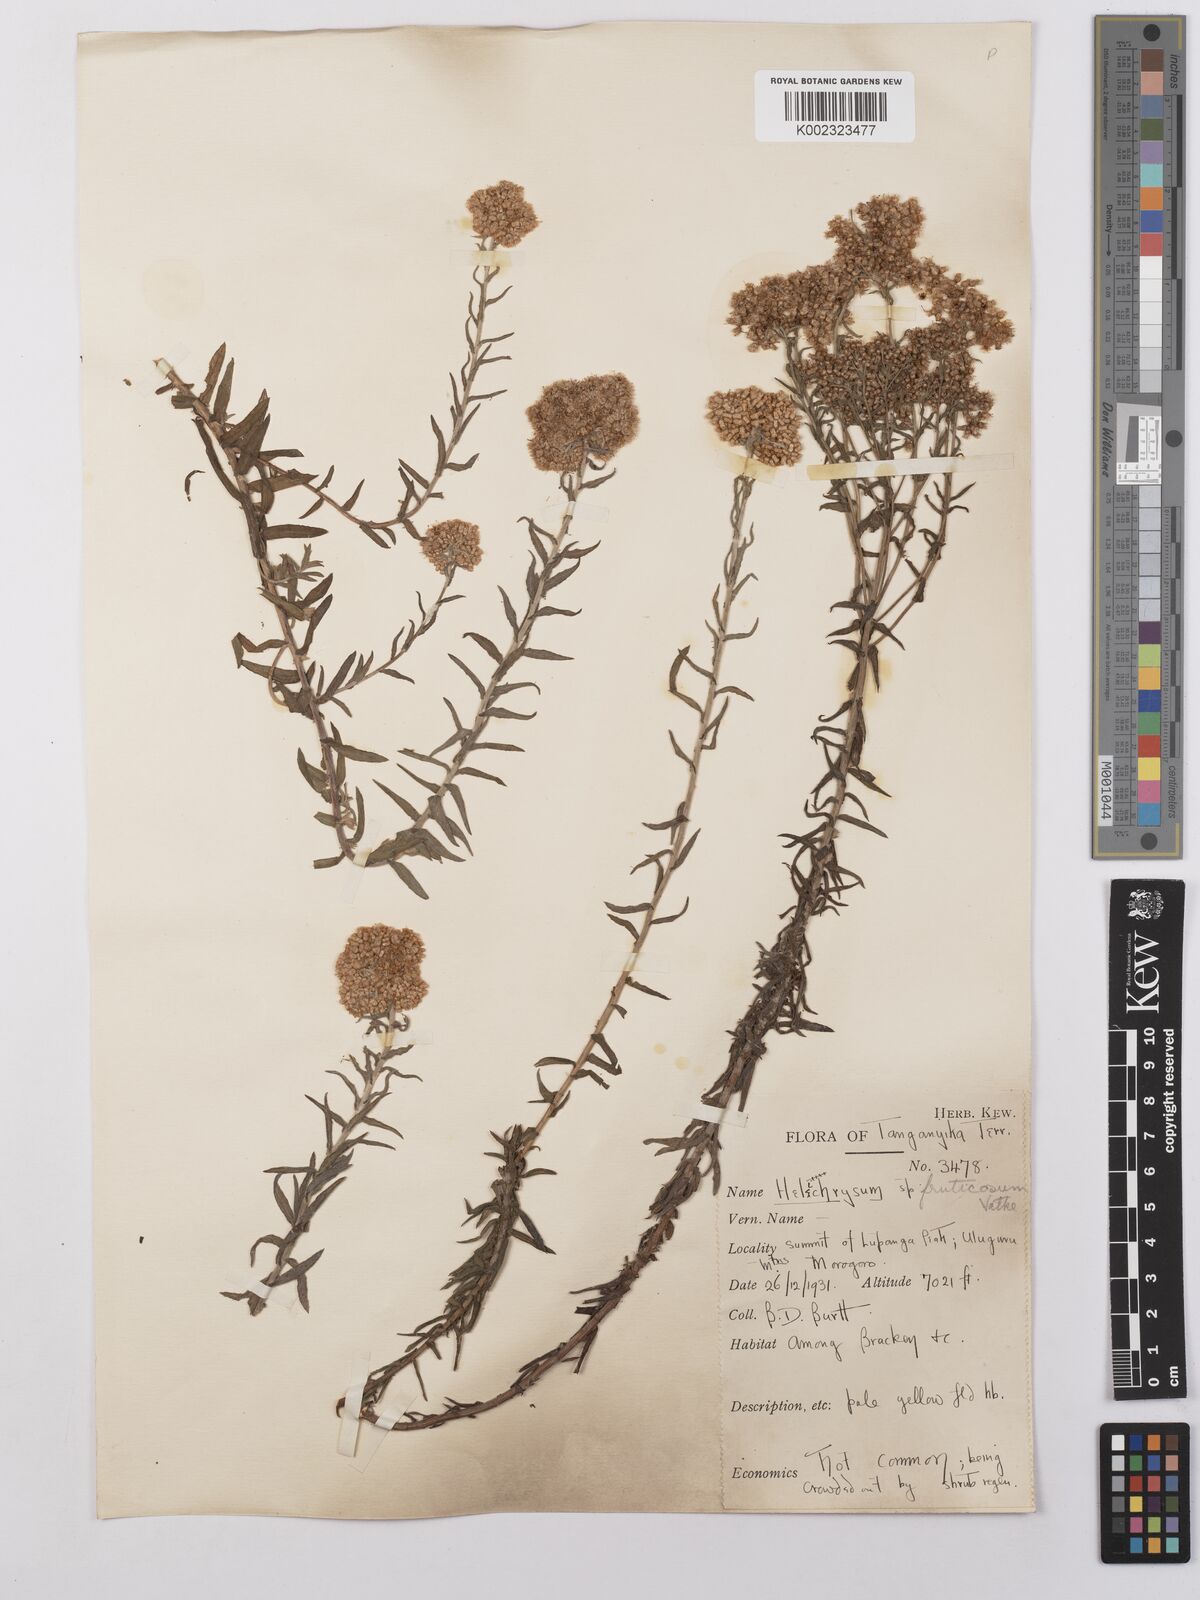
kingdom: Plantae
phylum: Tracheophyta
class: Magnoliopsida
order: Asterales
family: Asteraceae
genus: Helichrysum
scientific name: Helichrysum forskahlii
